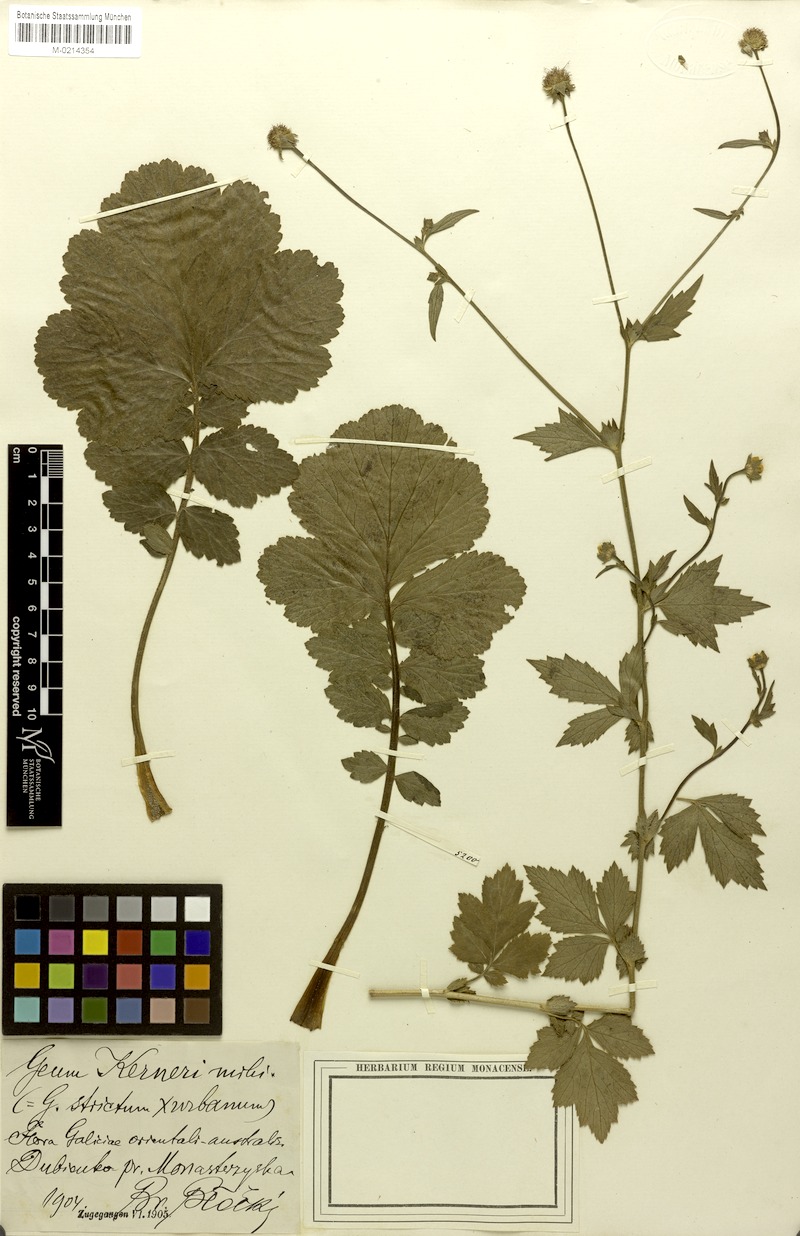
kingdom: Plantae
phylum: Tracheophyta
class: Magnoliopsida
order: Rosales
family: Rosaceae
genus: Geum
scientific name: Geum kerneri
